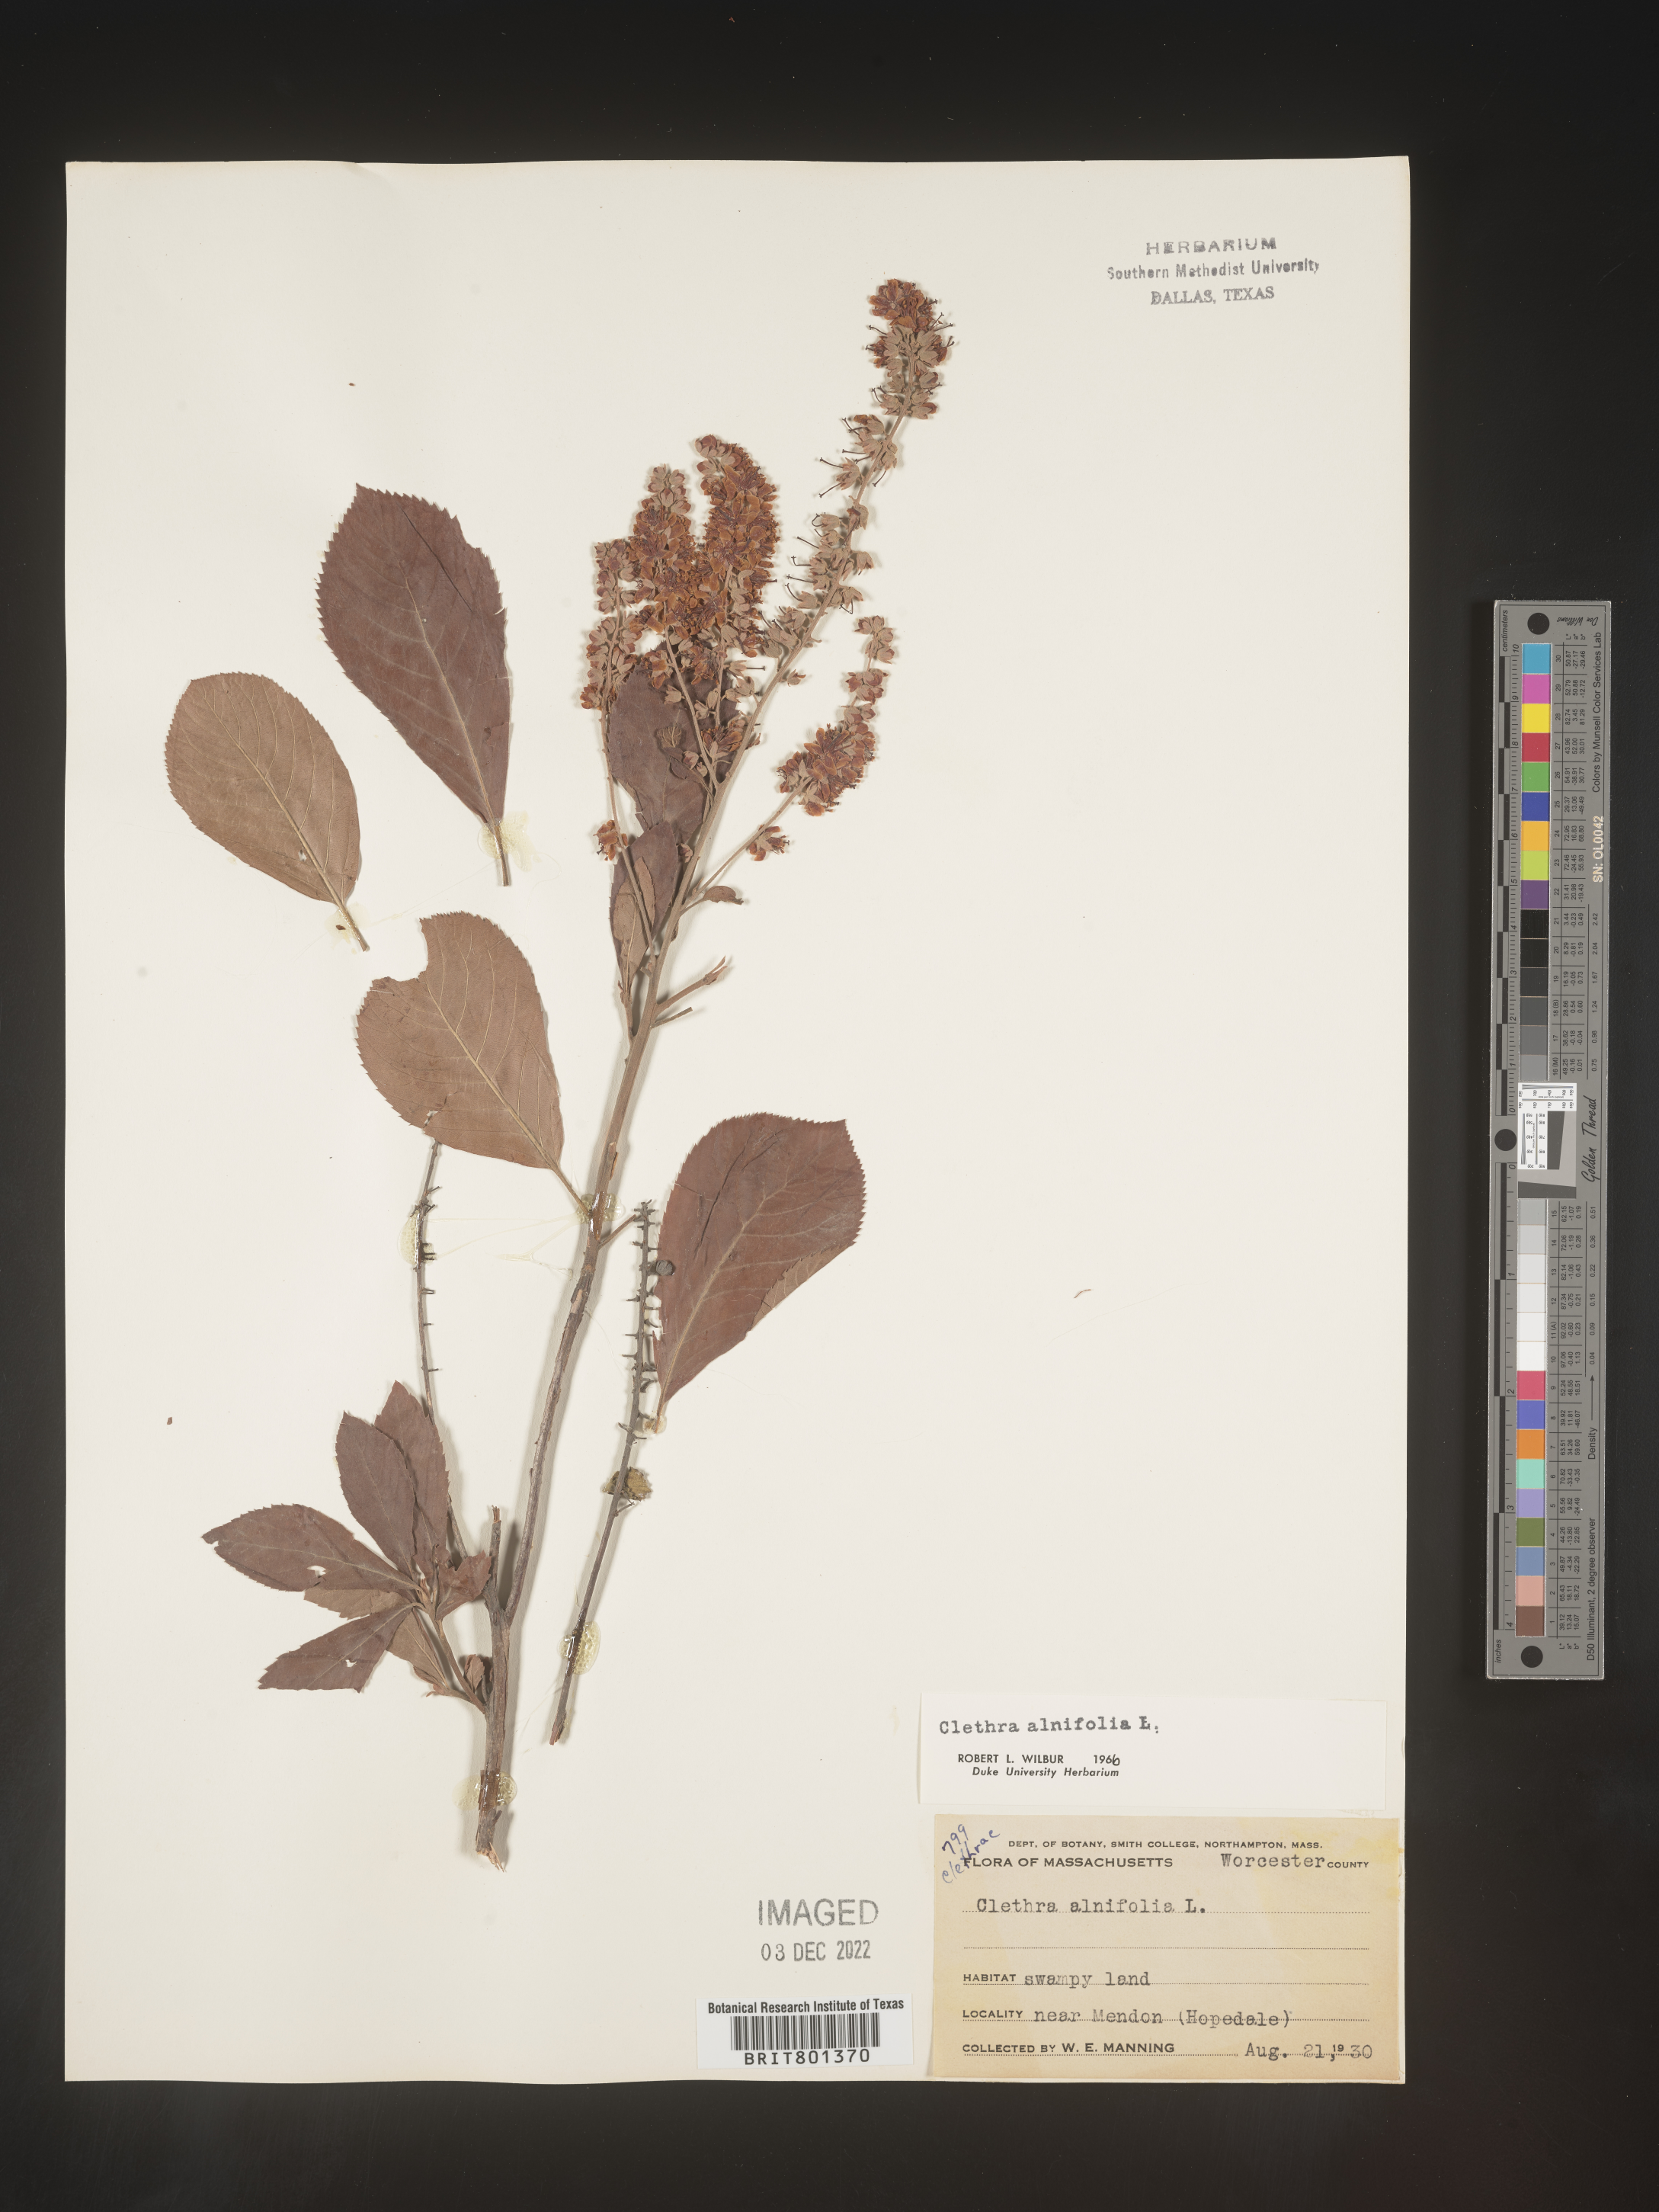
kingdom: Plantae
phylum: Tracheophyta
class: Magnoliopsida
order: Ericales
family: Clethraceae
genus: Clethra
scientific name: Clethra alnifolia
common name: Sweet pepperbush
